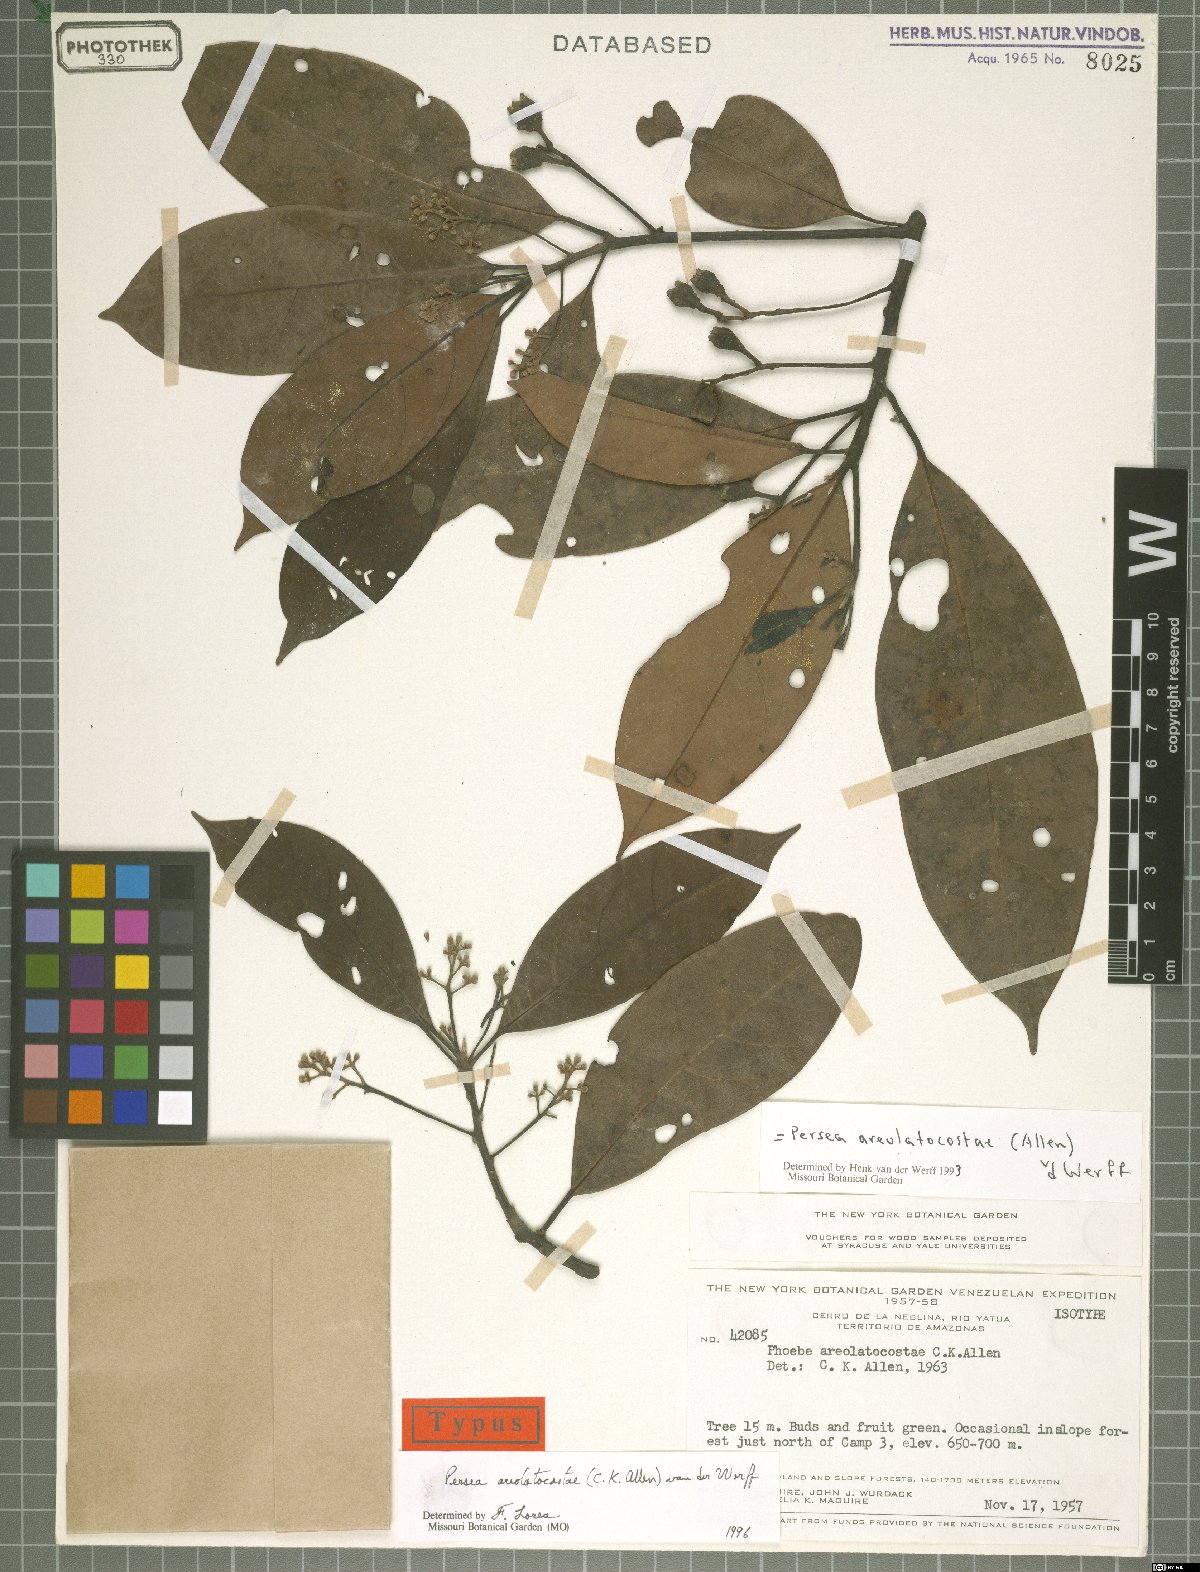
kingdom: Plantae
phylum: Tracheophyta
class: Magnoliopsida
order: Laurales
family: Lauraceae
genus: Persea
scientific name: Persea areolatocostae
